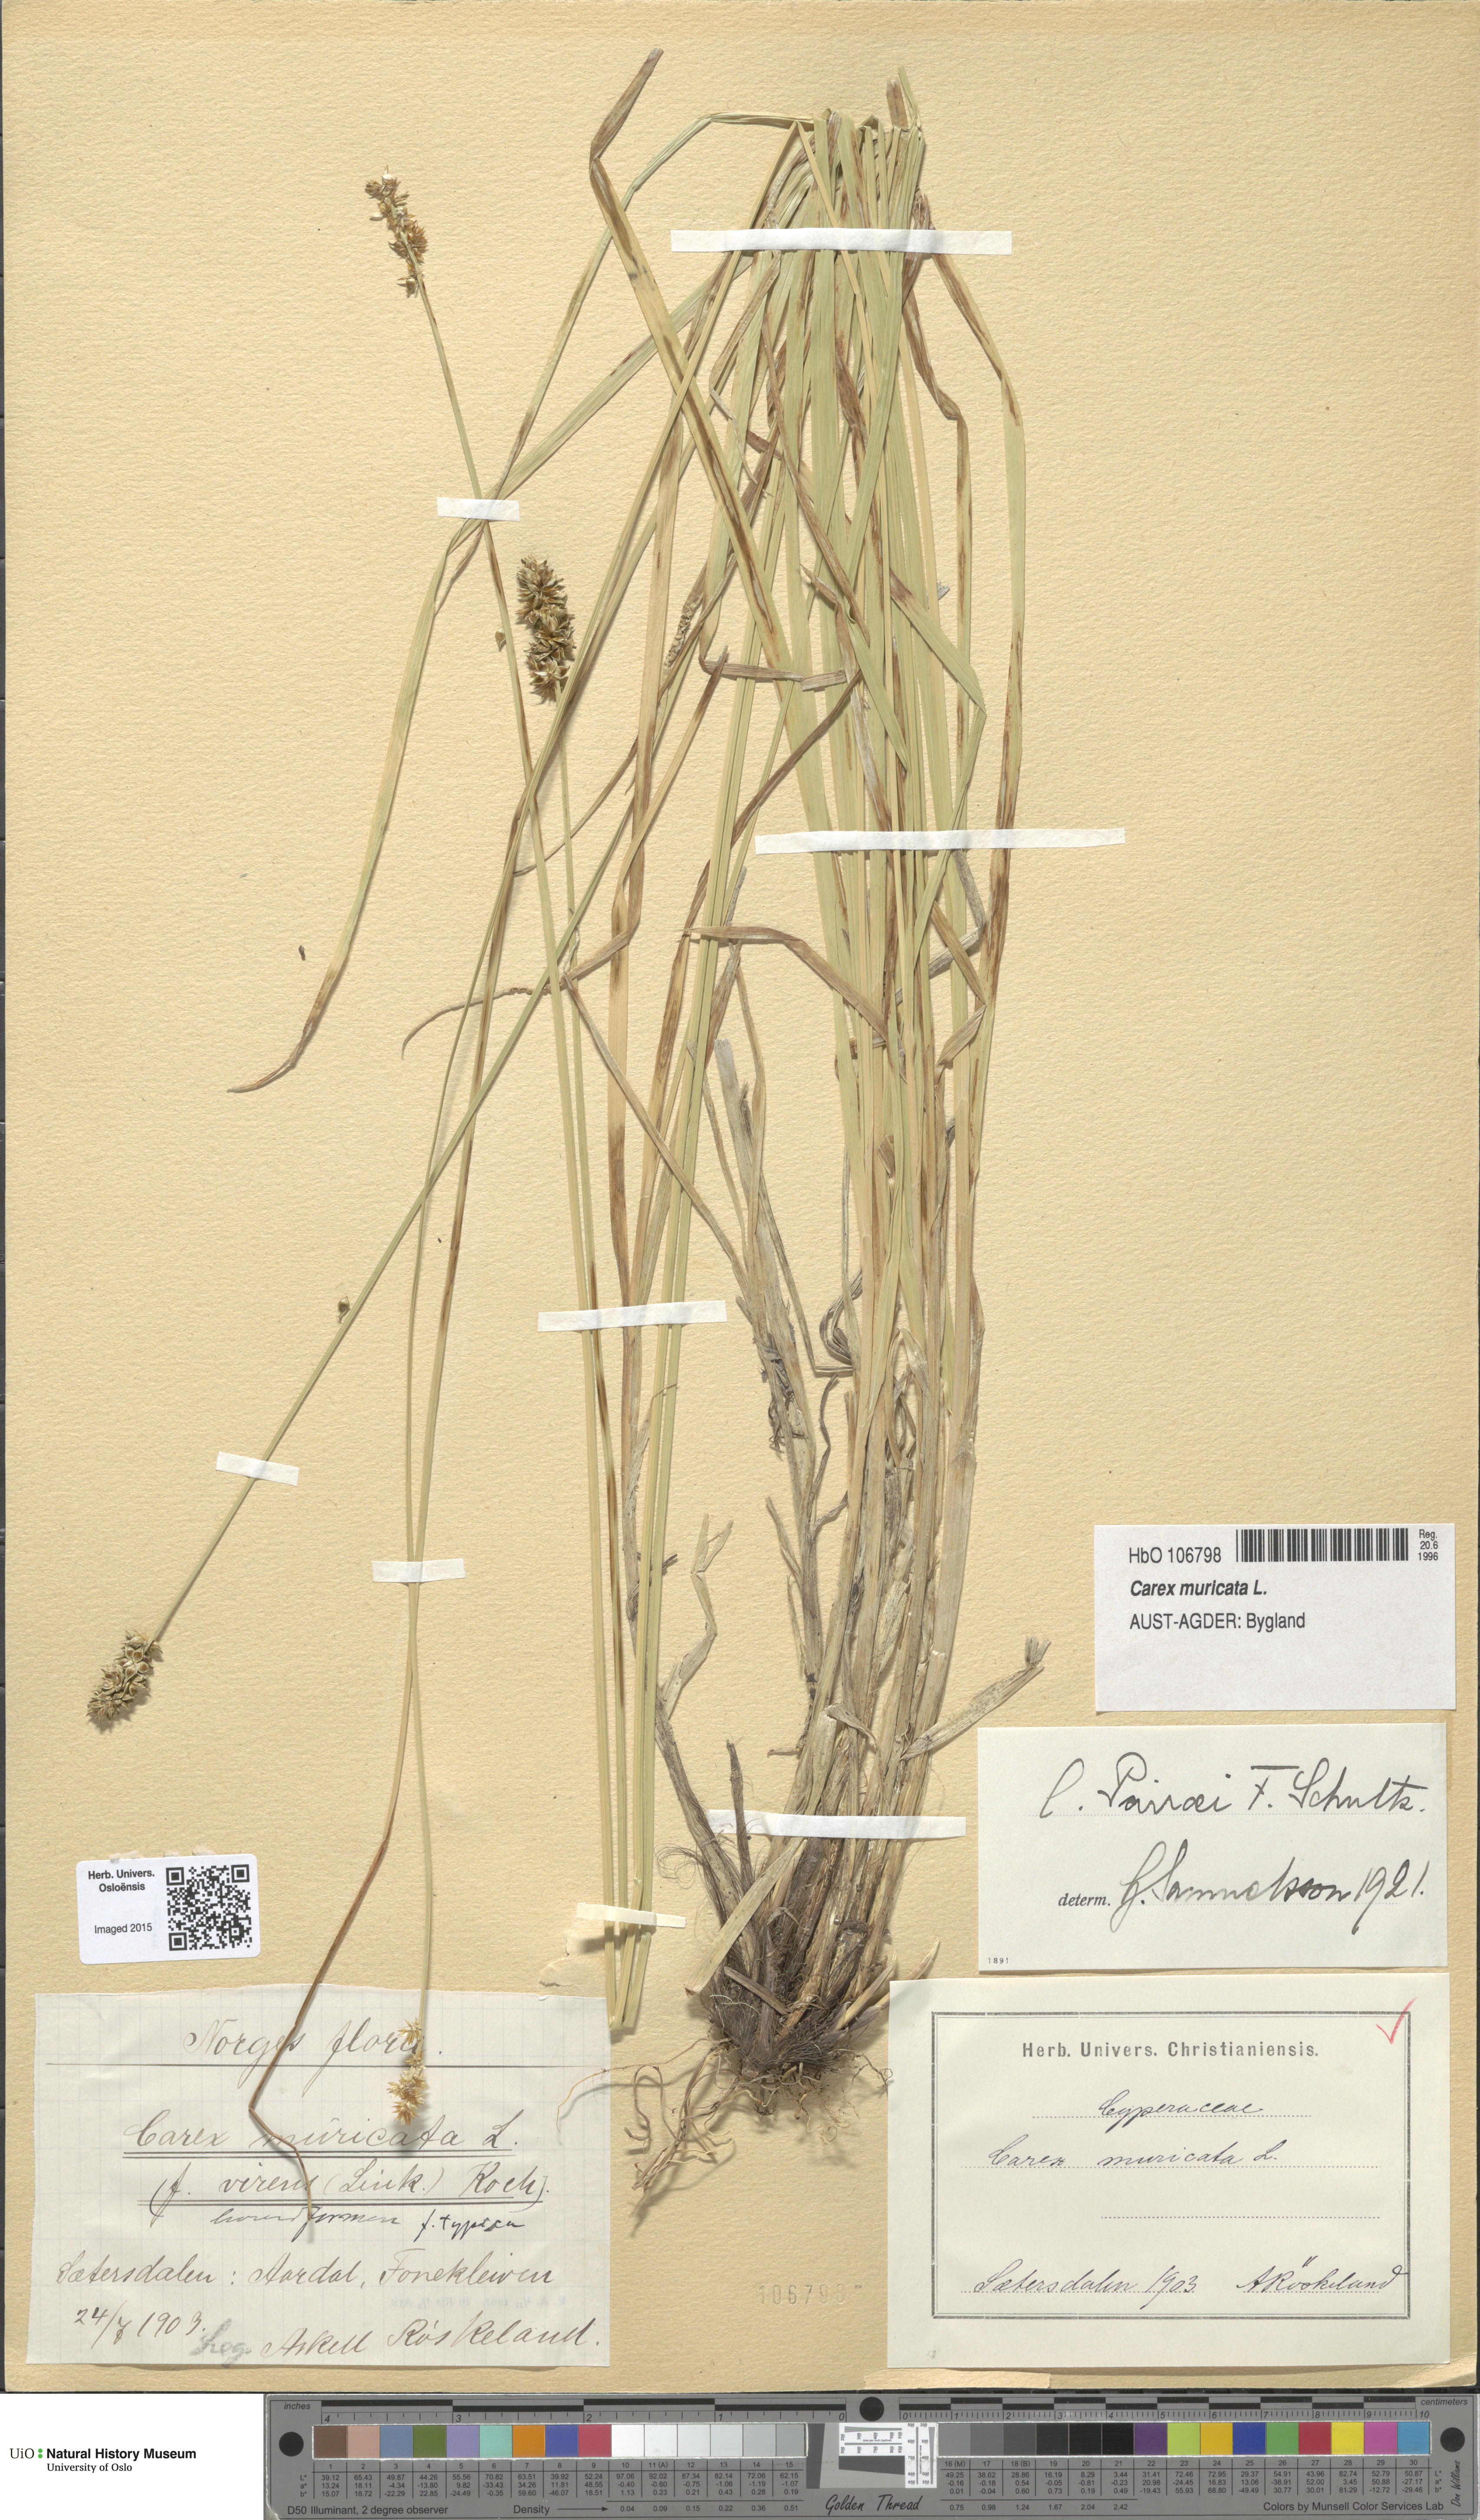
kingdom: Plantae
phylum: Tracheophyta
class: Liliopsida
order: Poales
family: Cyperaceae
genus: Carex
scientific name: Carex pairae
